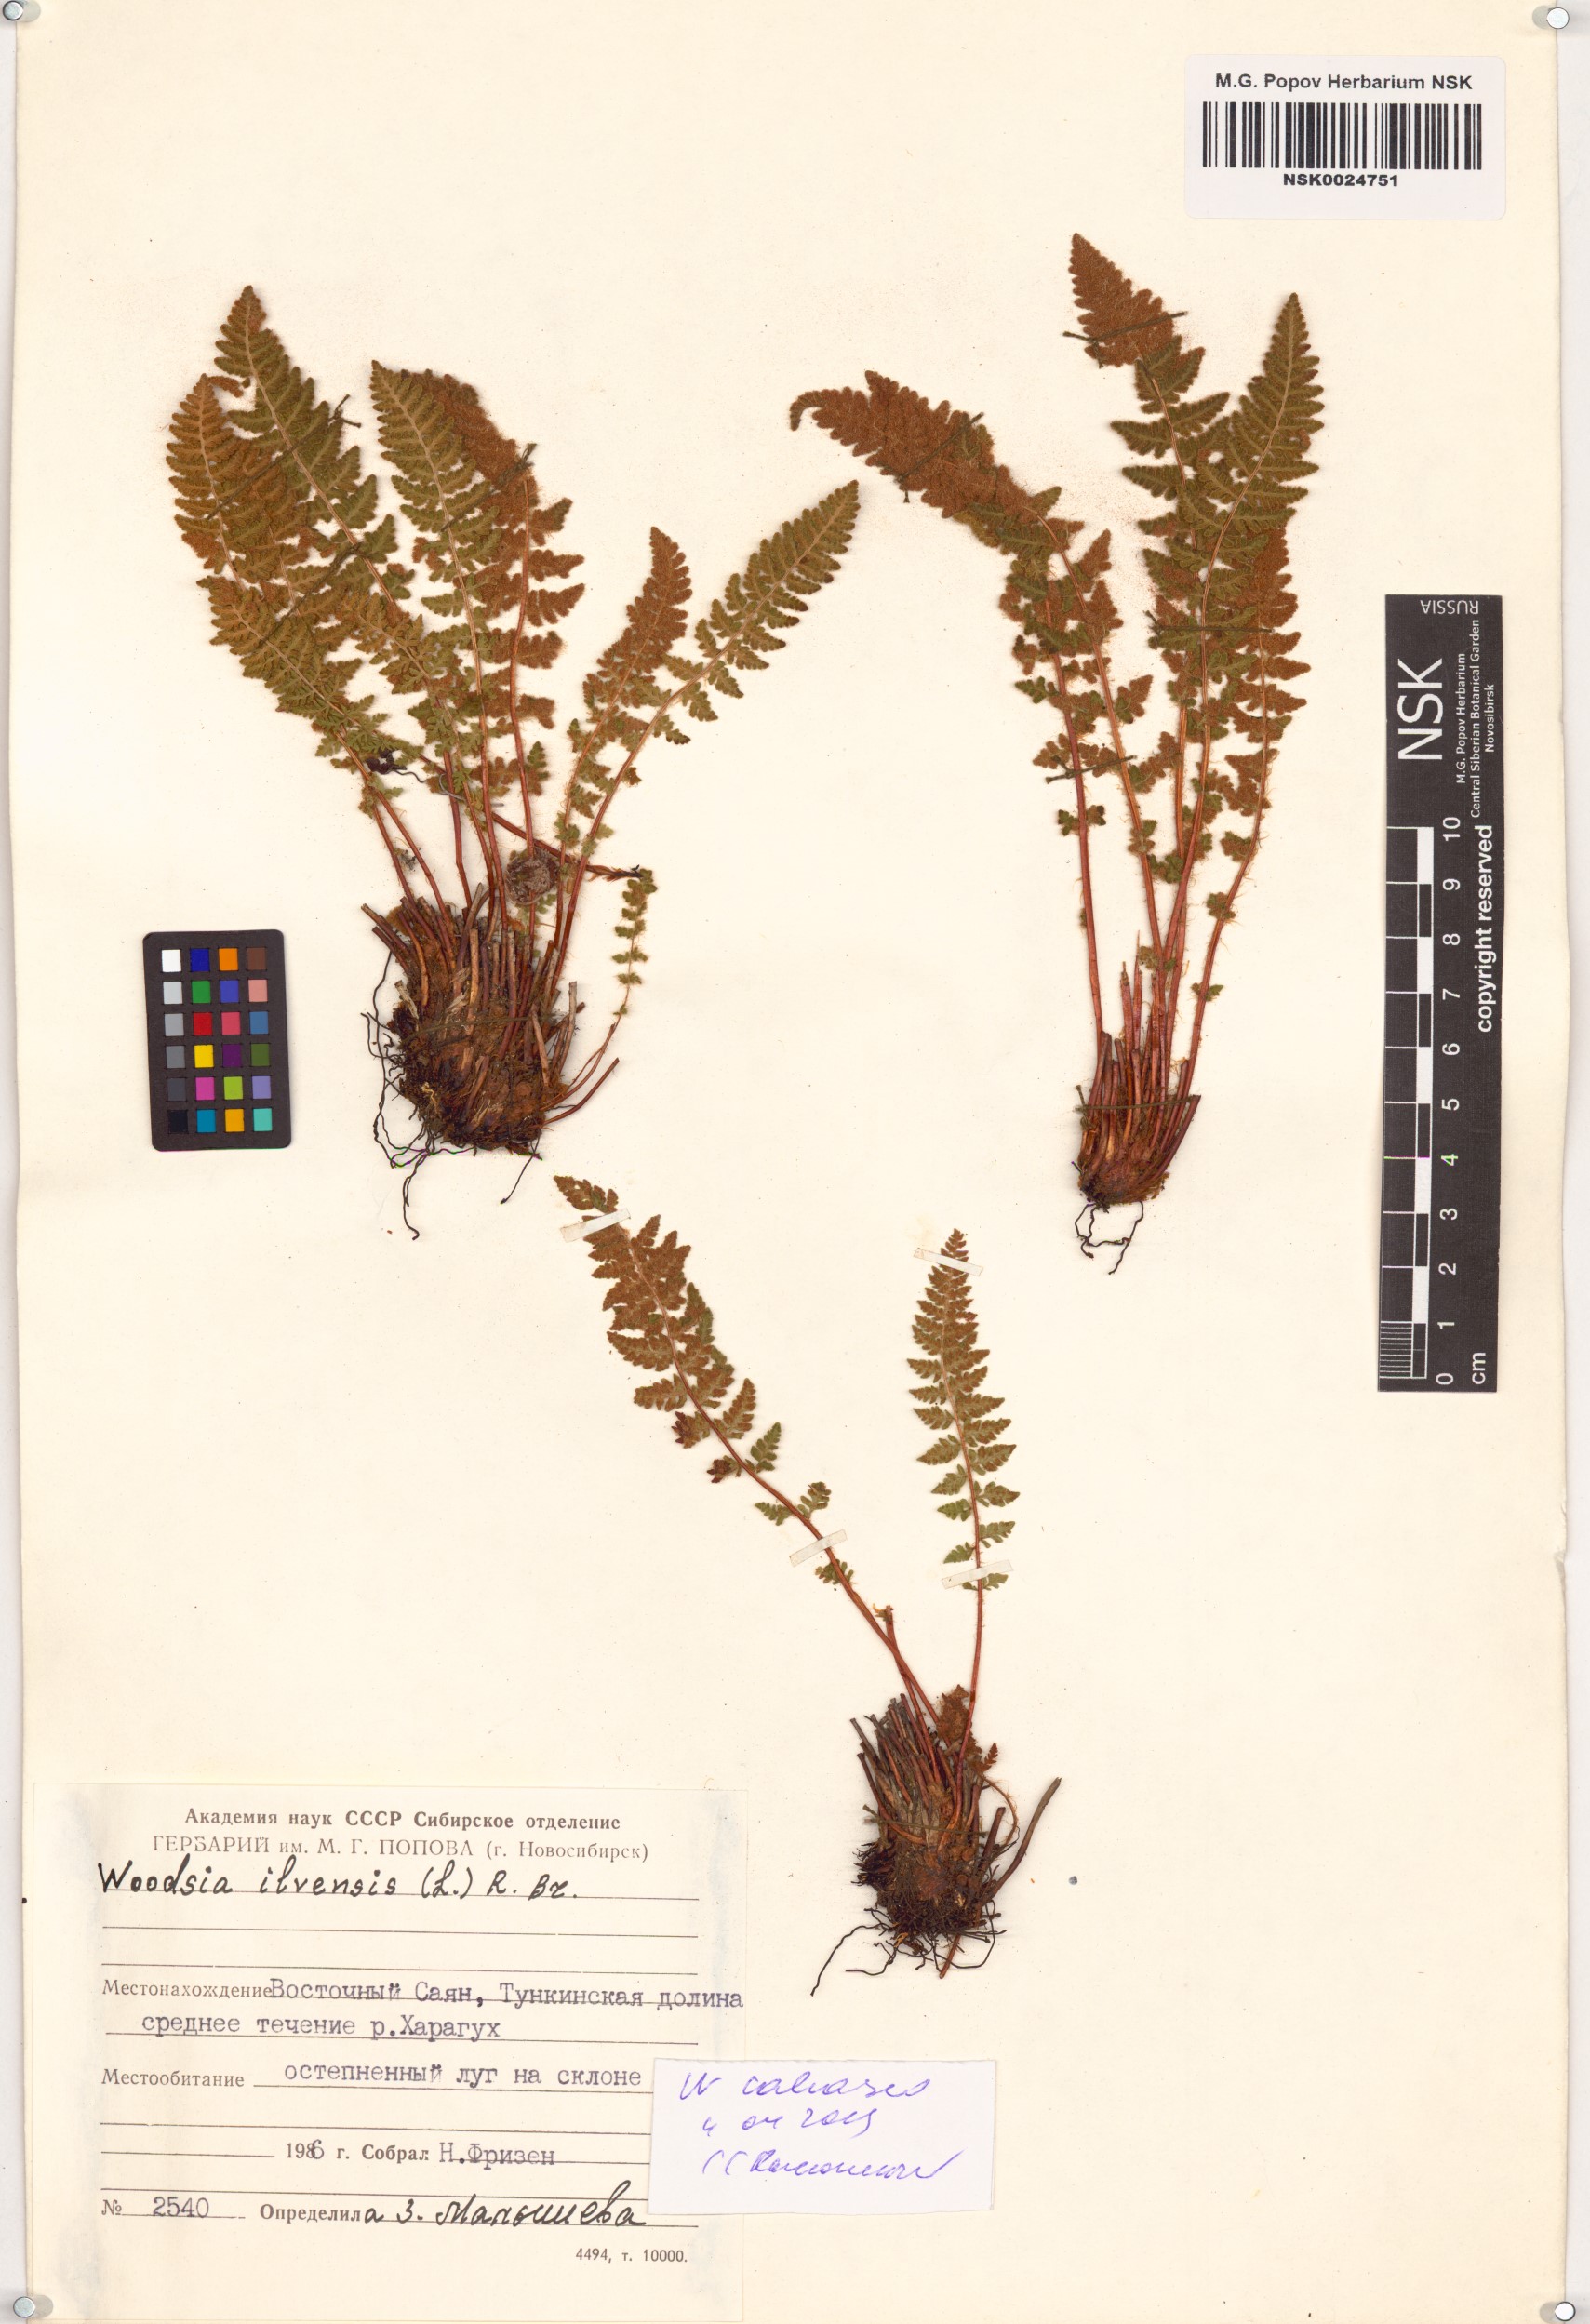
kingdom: Plantae
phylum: Tracheophyta
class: Polypodiopsida
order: Polypodiales
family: Woodsiaceae
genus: Woodsia
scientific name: Woodsia calcarea
